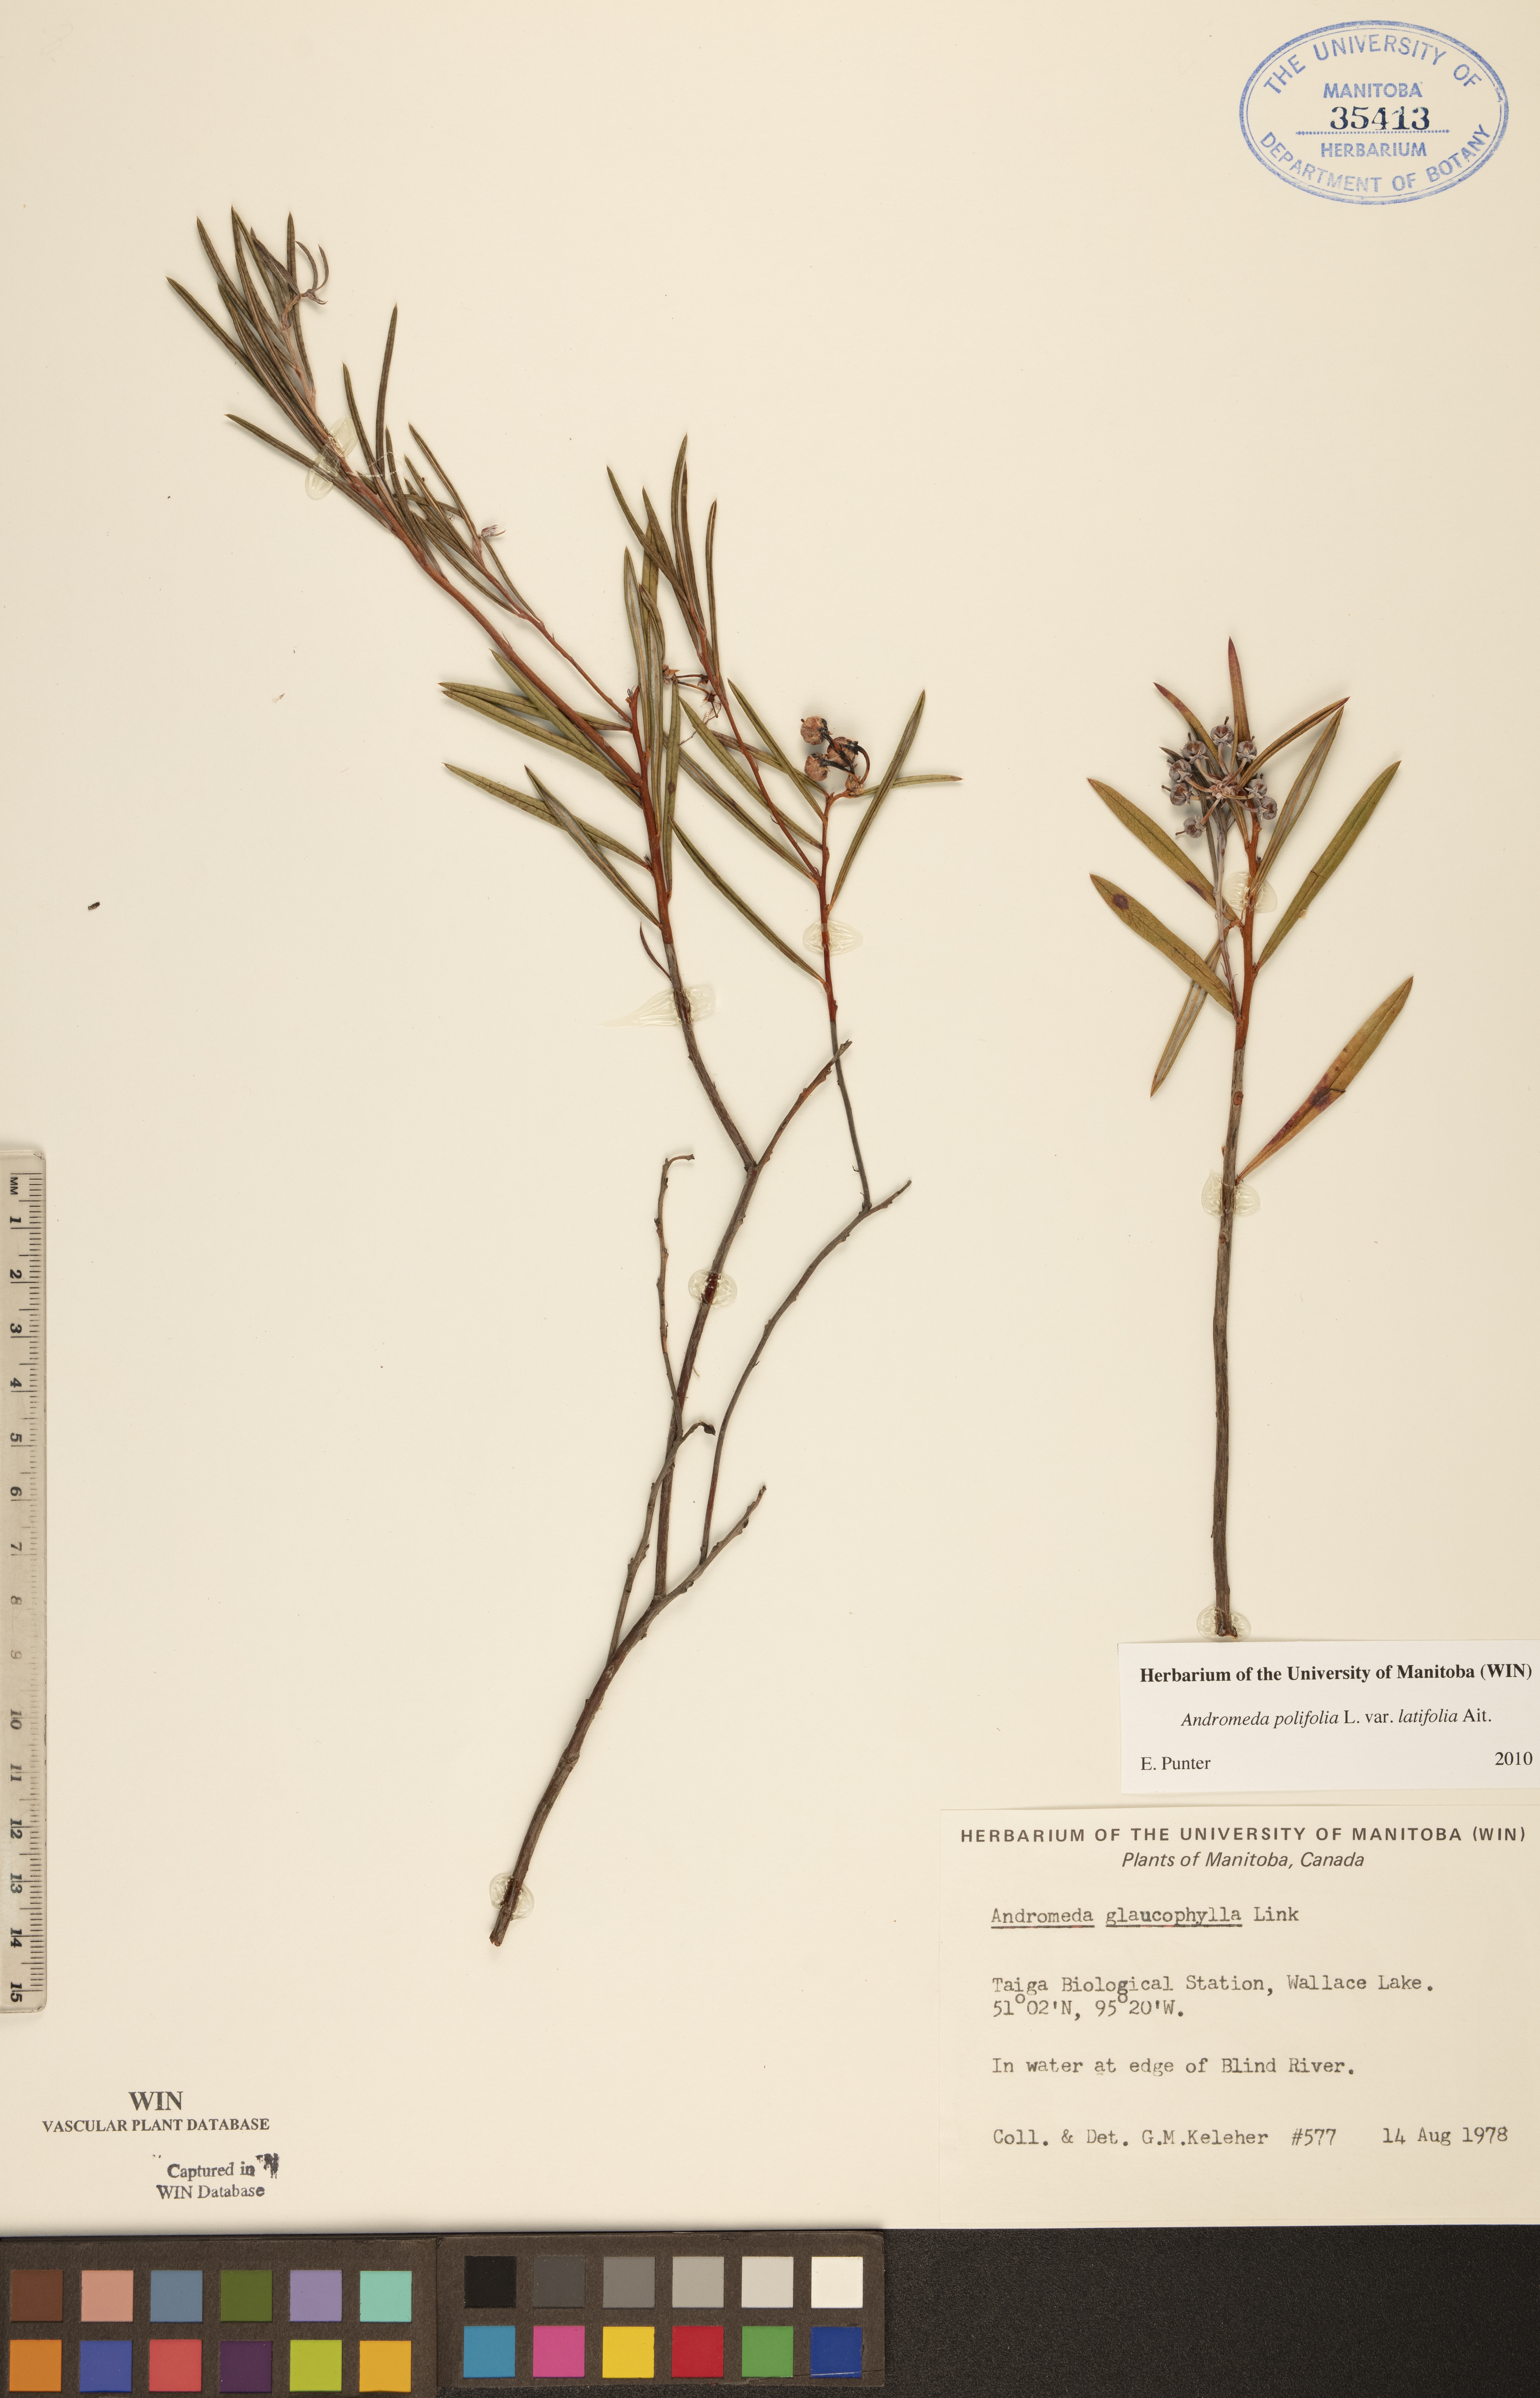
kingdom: Plantae
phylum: Tracheophyta
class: Magnoliopsida
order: Ericales
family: Ericaceae
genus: Andromeda
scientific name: Andromeda polifolia
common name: Bog-rosemary
